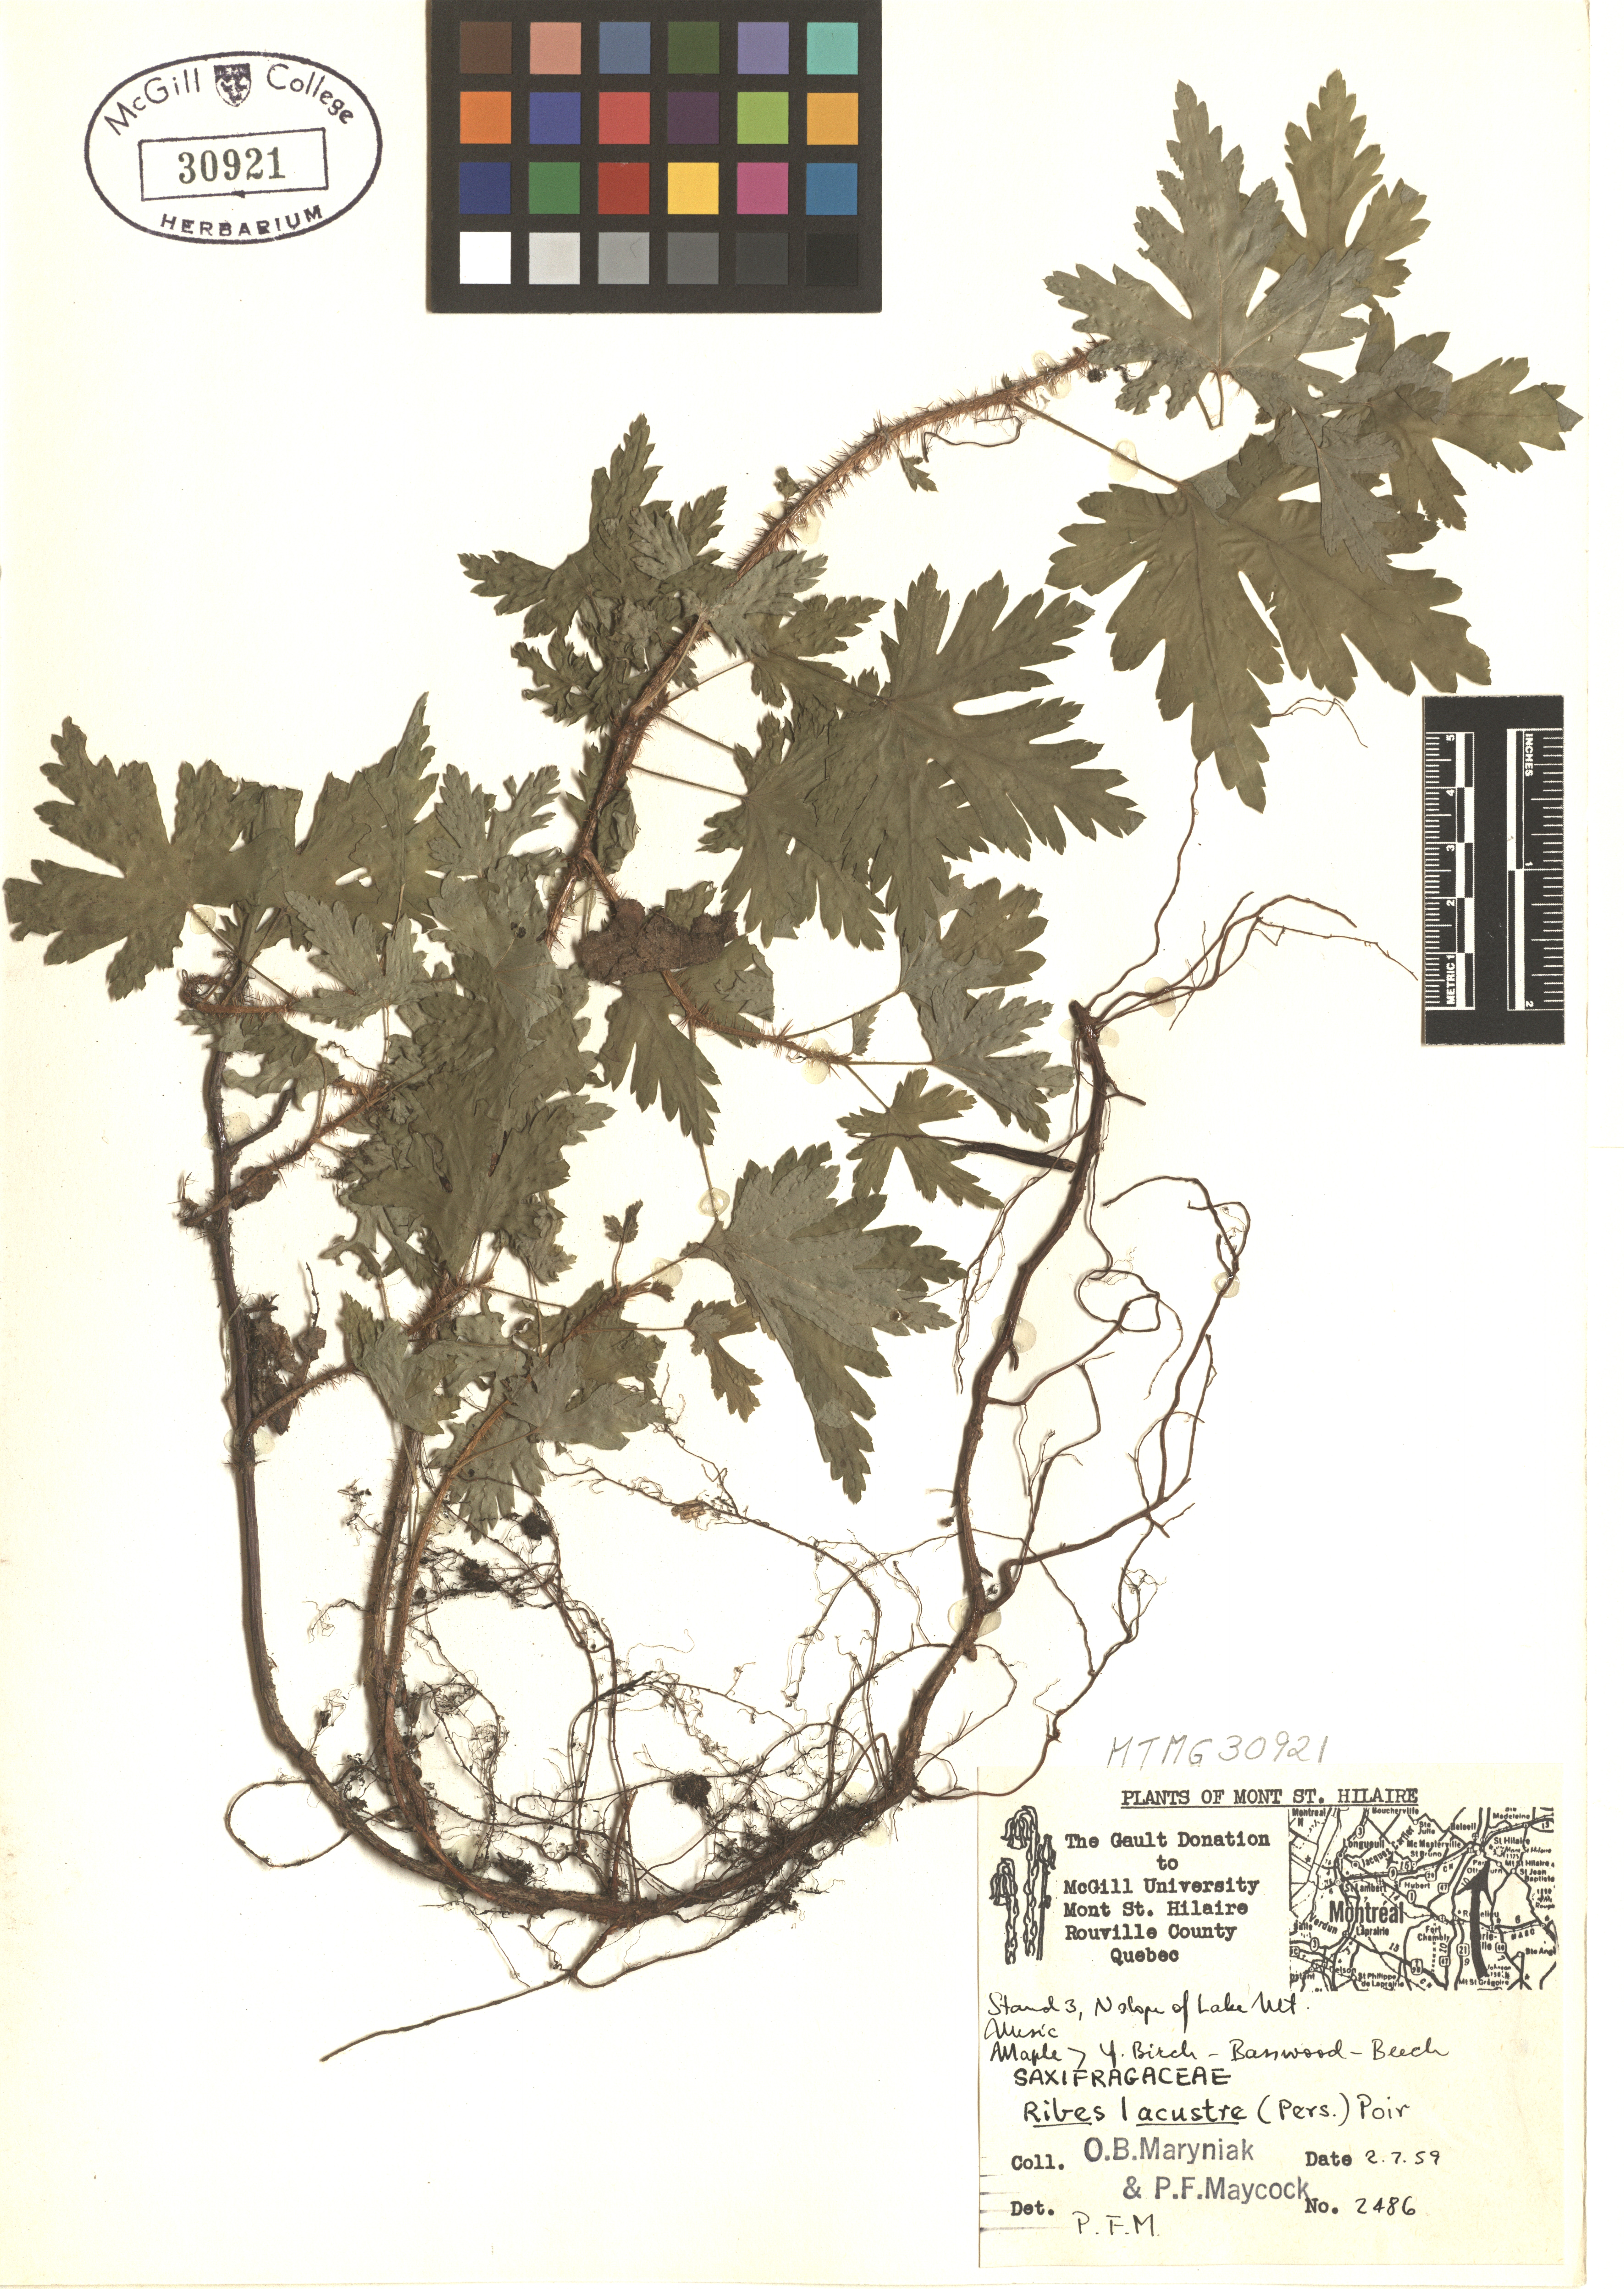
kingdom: Plantae
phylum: Tracheophyta
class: Magnoliopsida
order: Saxifragales
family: Grossulariaceae
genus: Ribes
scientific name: Ribes lacustre
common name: Black gooseberry
